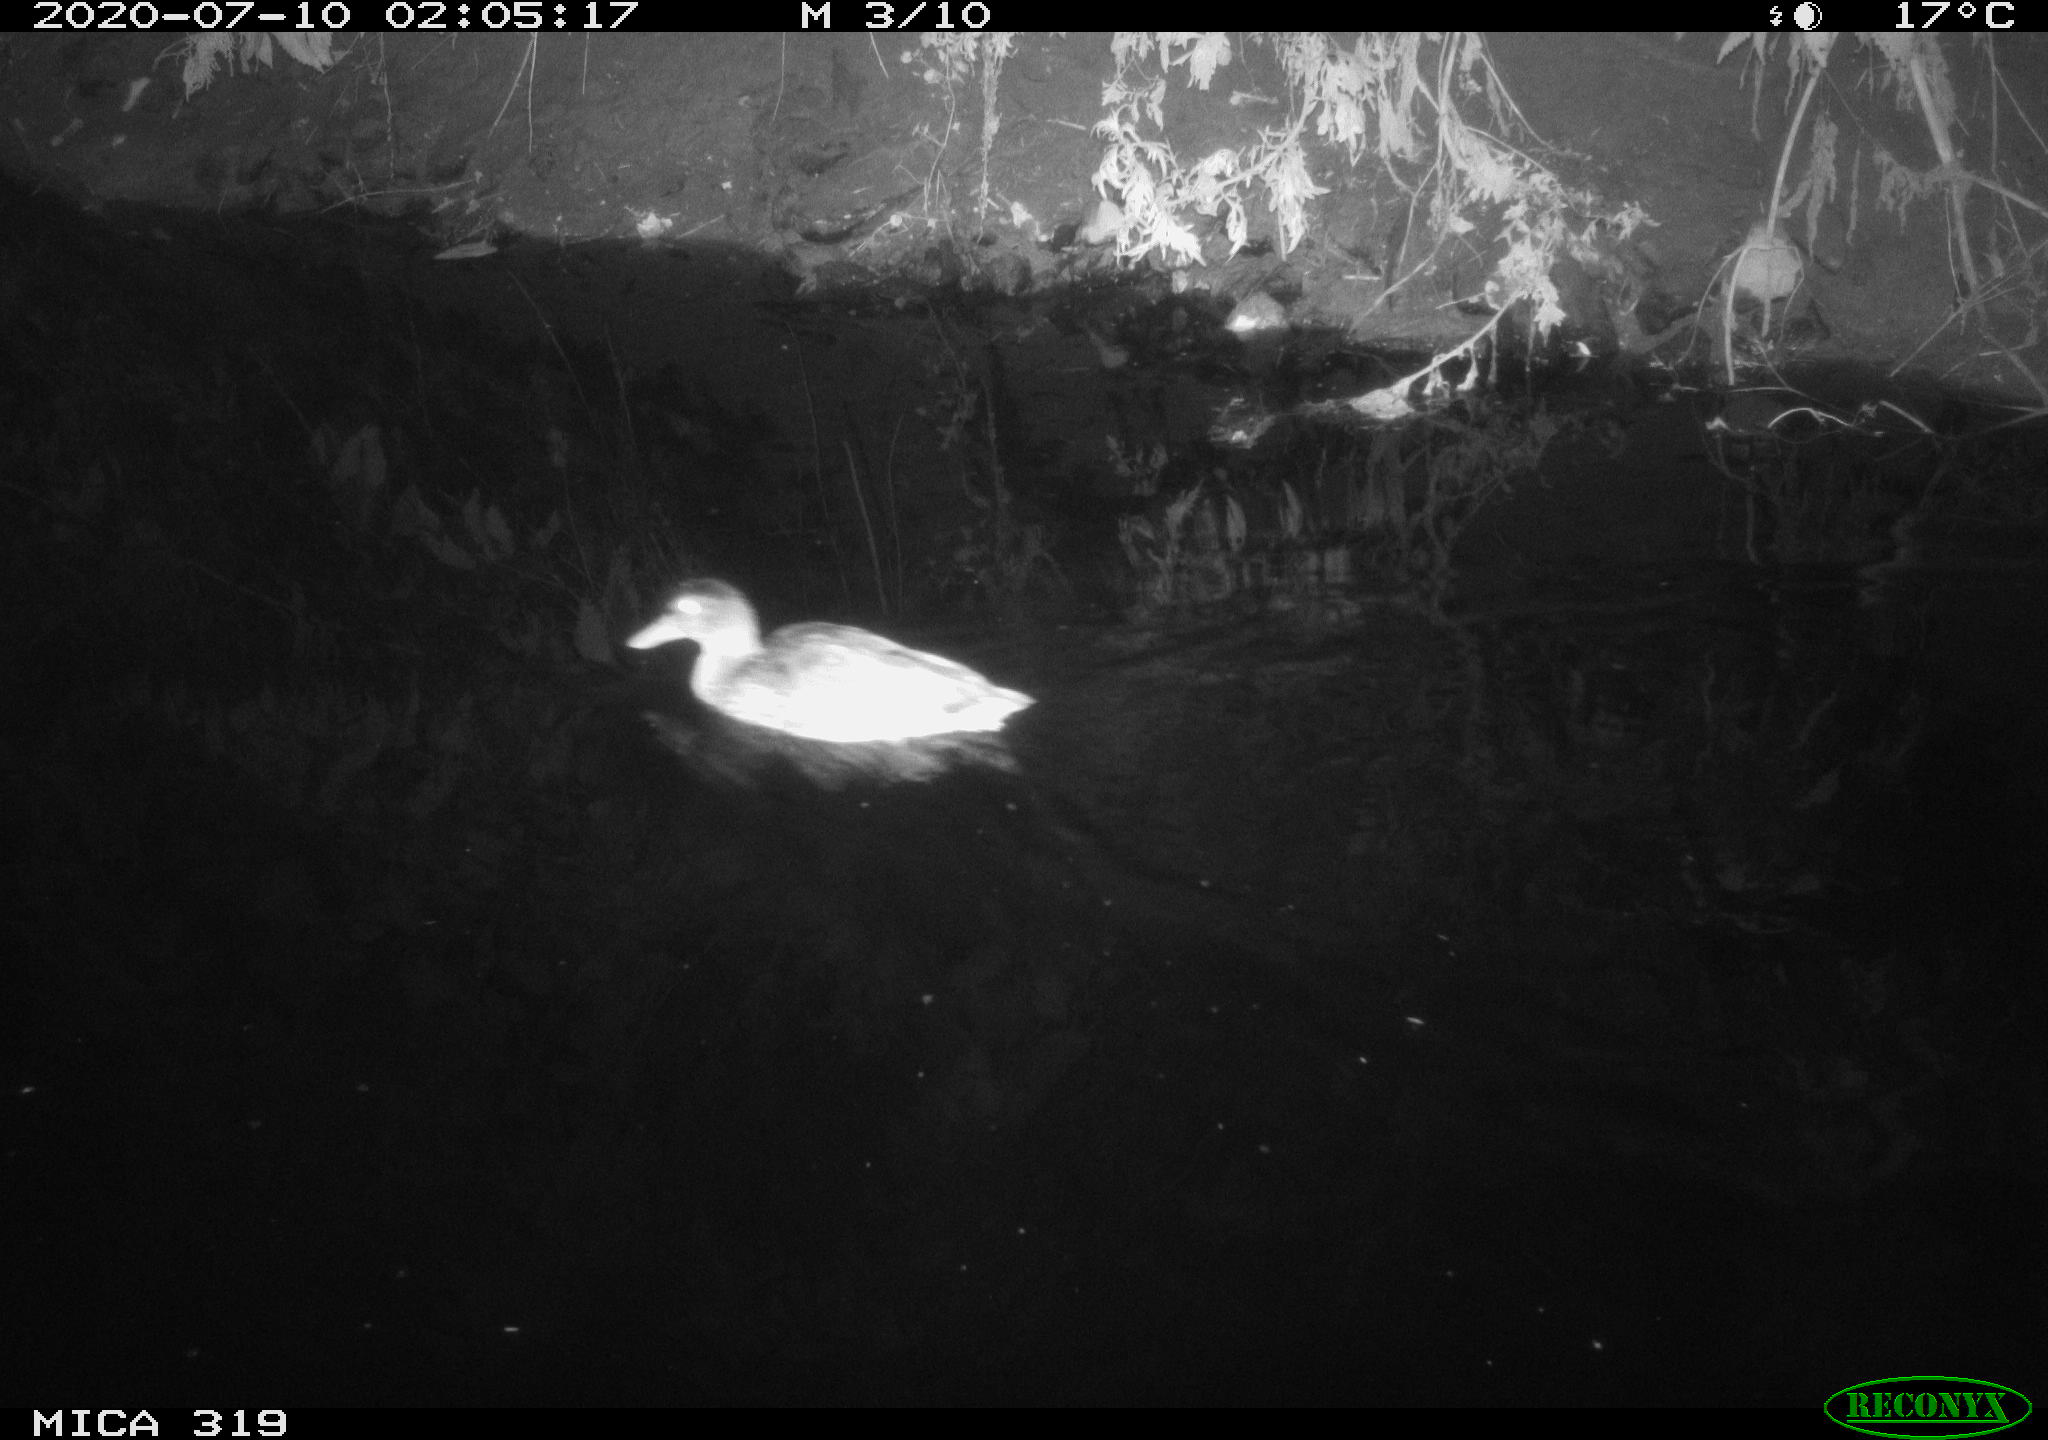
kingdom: Animalia
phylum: Chordata
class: Aves
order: Anseriformes
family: Anatidae
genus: Anas
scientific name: Anas platyrhynchos
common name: Mallard
